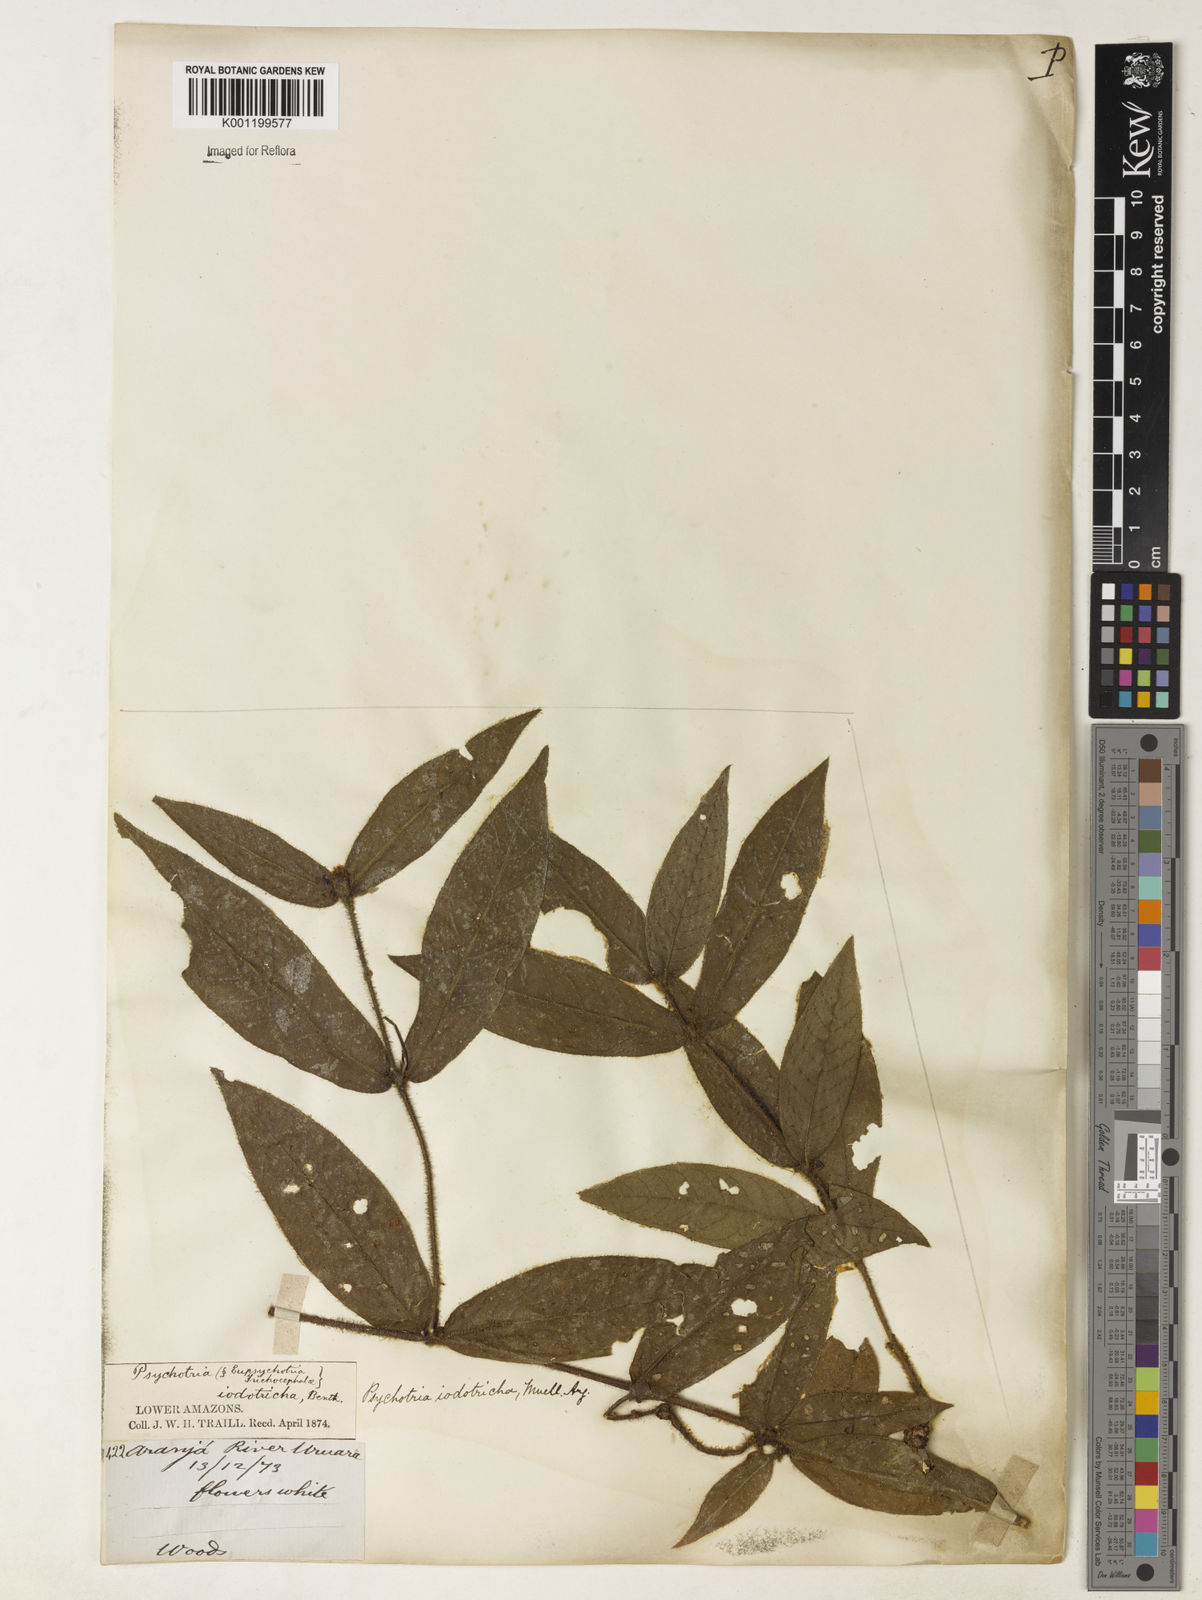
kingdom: Plantae
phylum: Tracheophyta
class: Magnoliopsida
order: Gentianales
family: Rubiaceae
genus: Psychotria
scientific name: Psychotria
